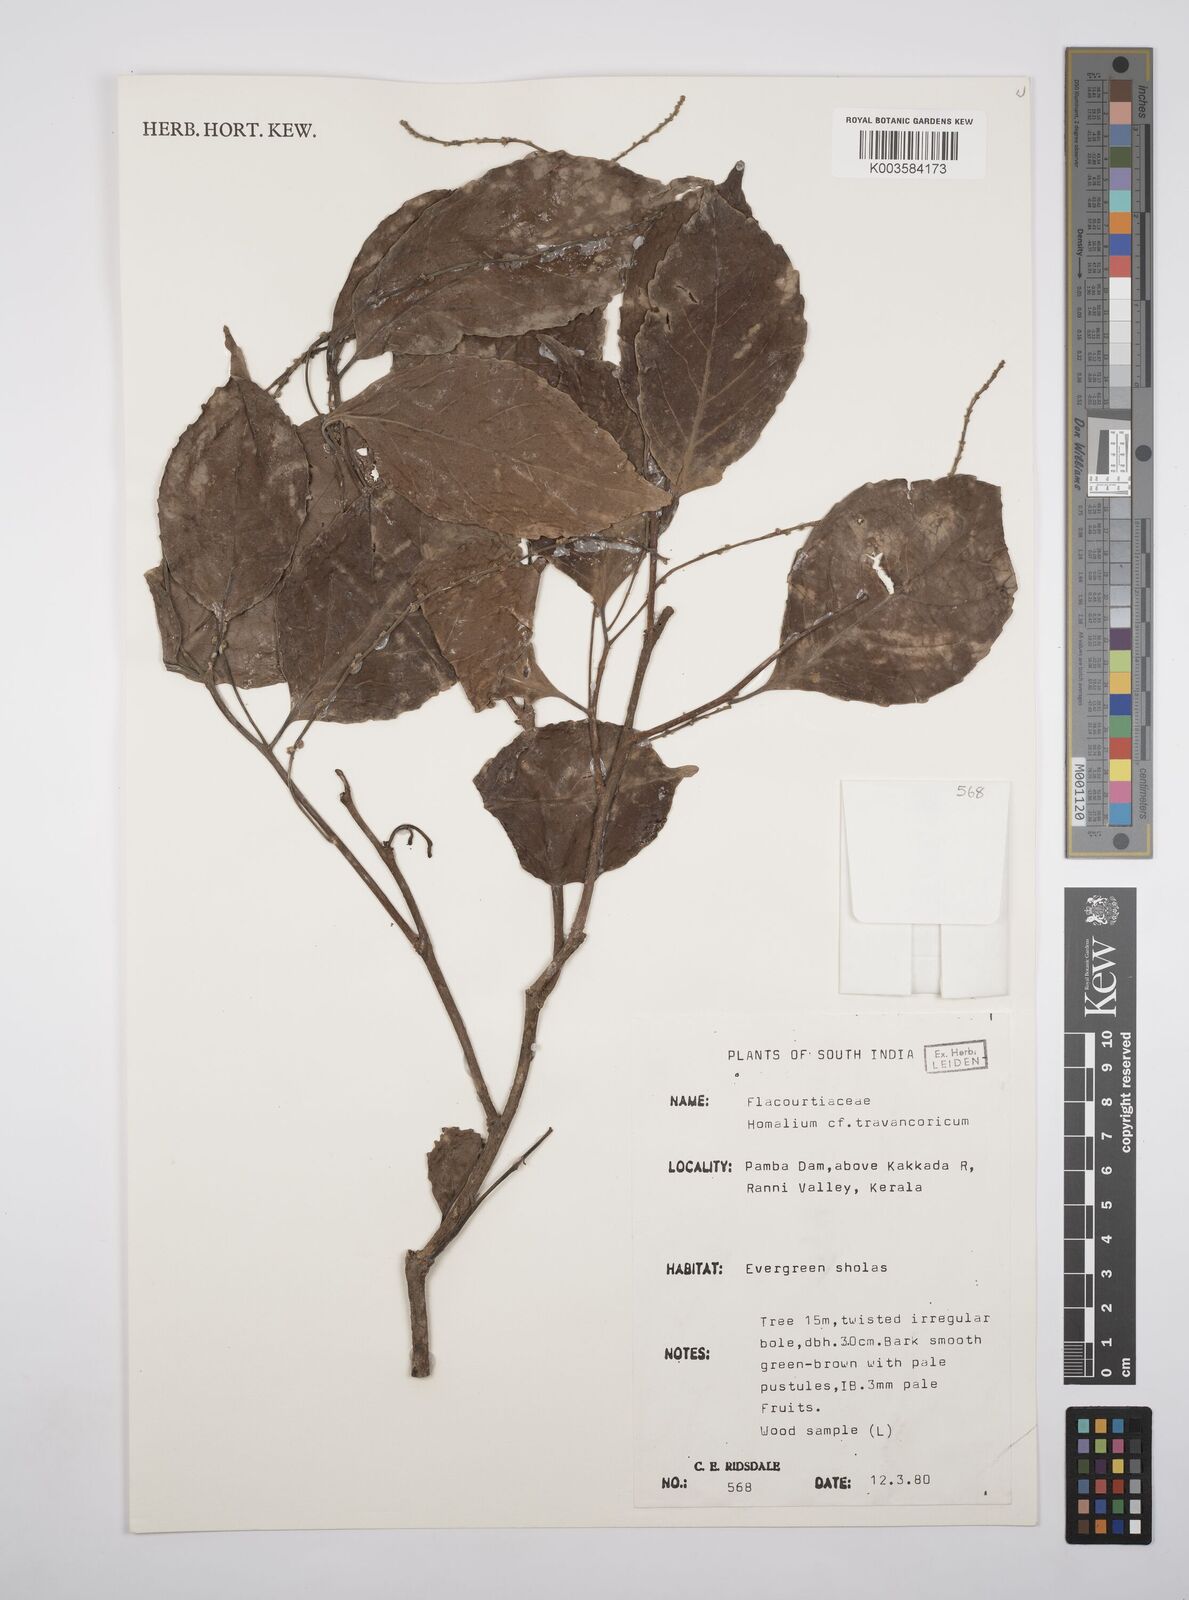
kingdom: Plantae
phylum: Tracheophyta
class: Magnoliopsida
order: Malpighiales
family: Salicaceae
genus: Homalium
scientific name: Homalium travancoricum
